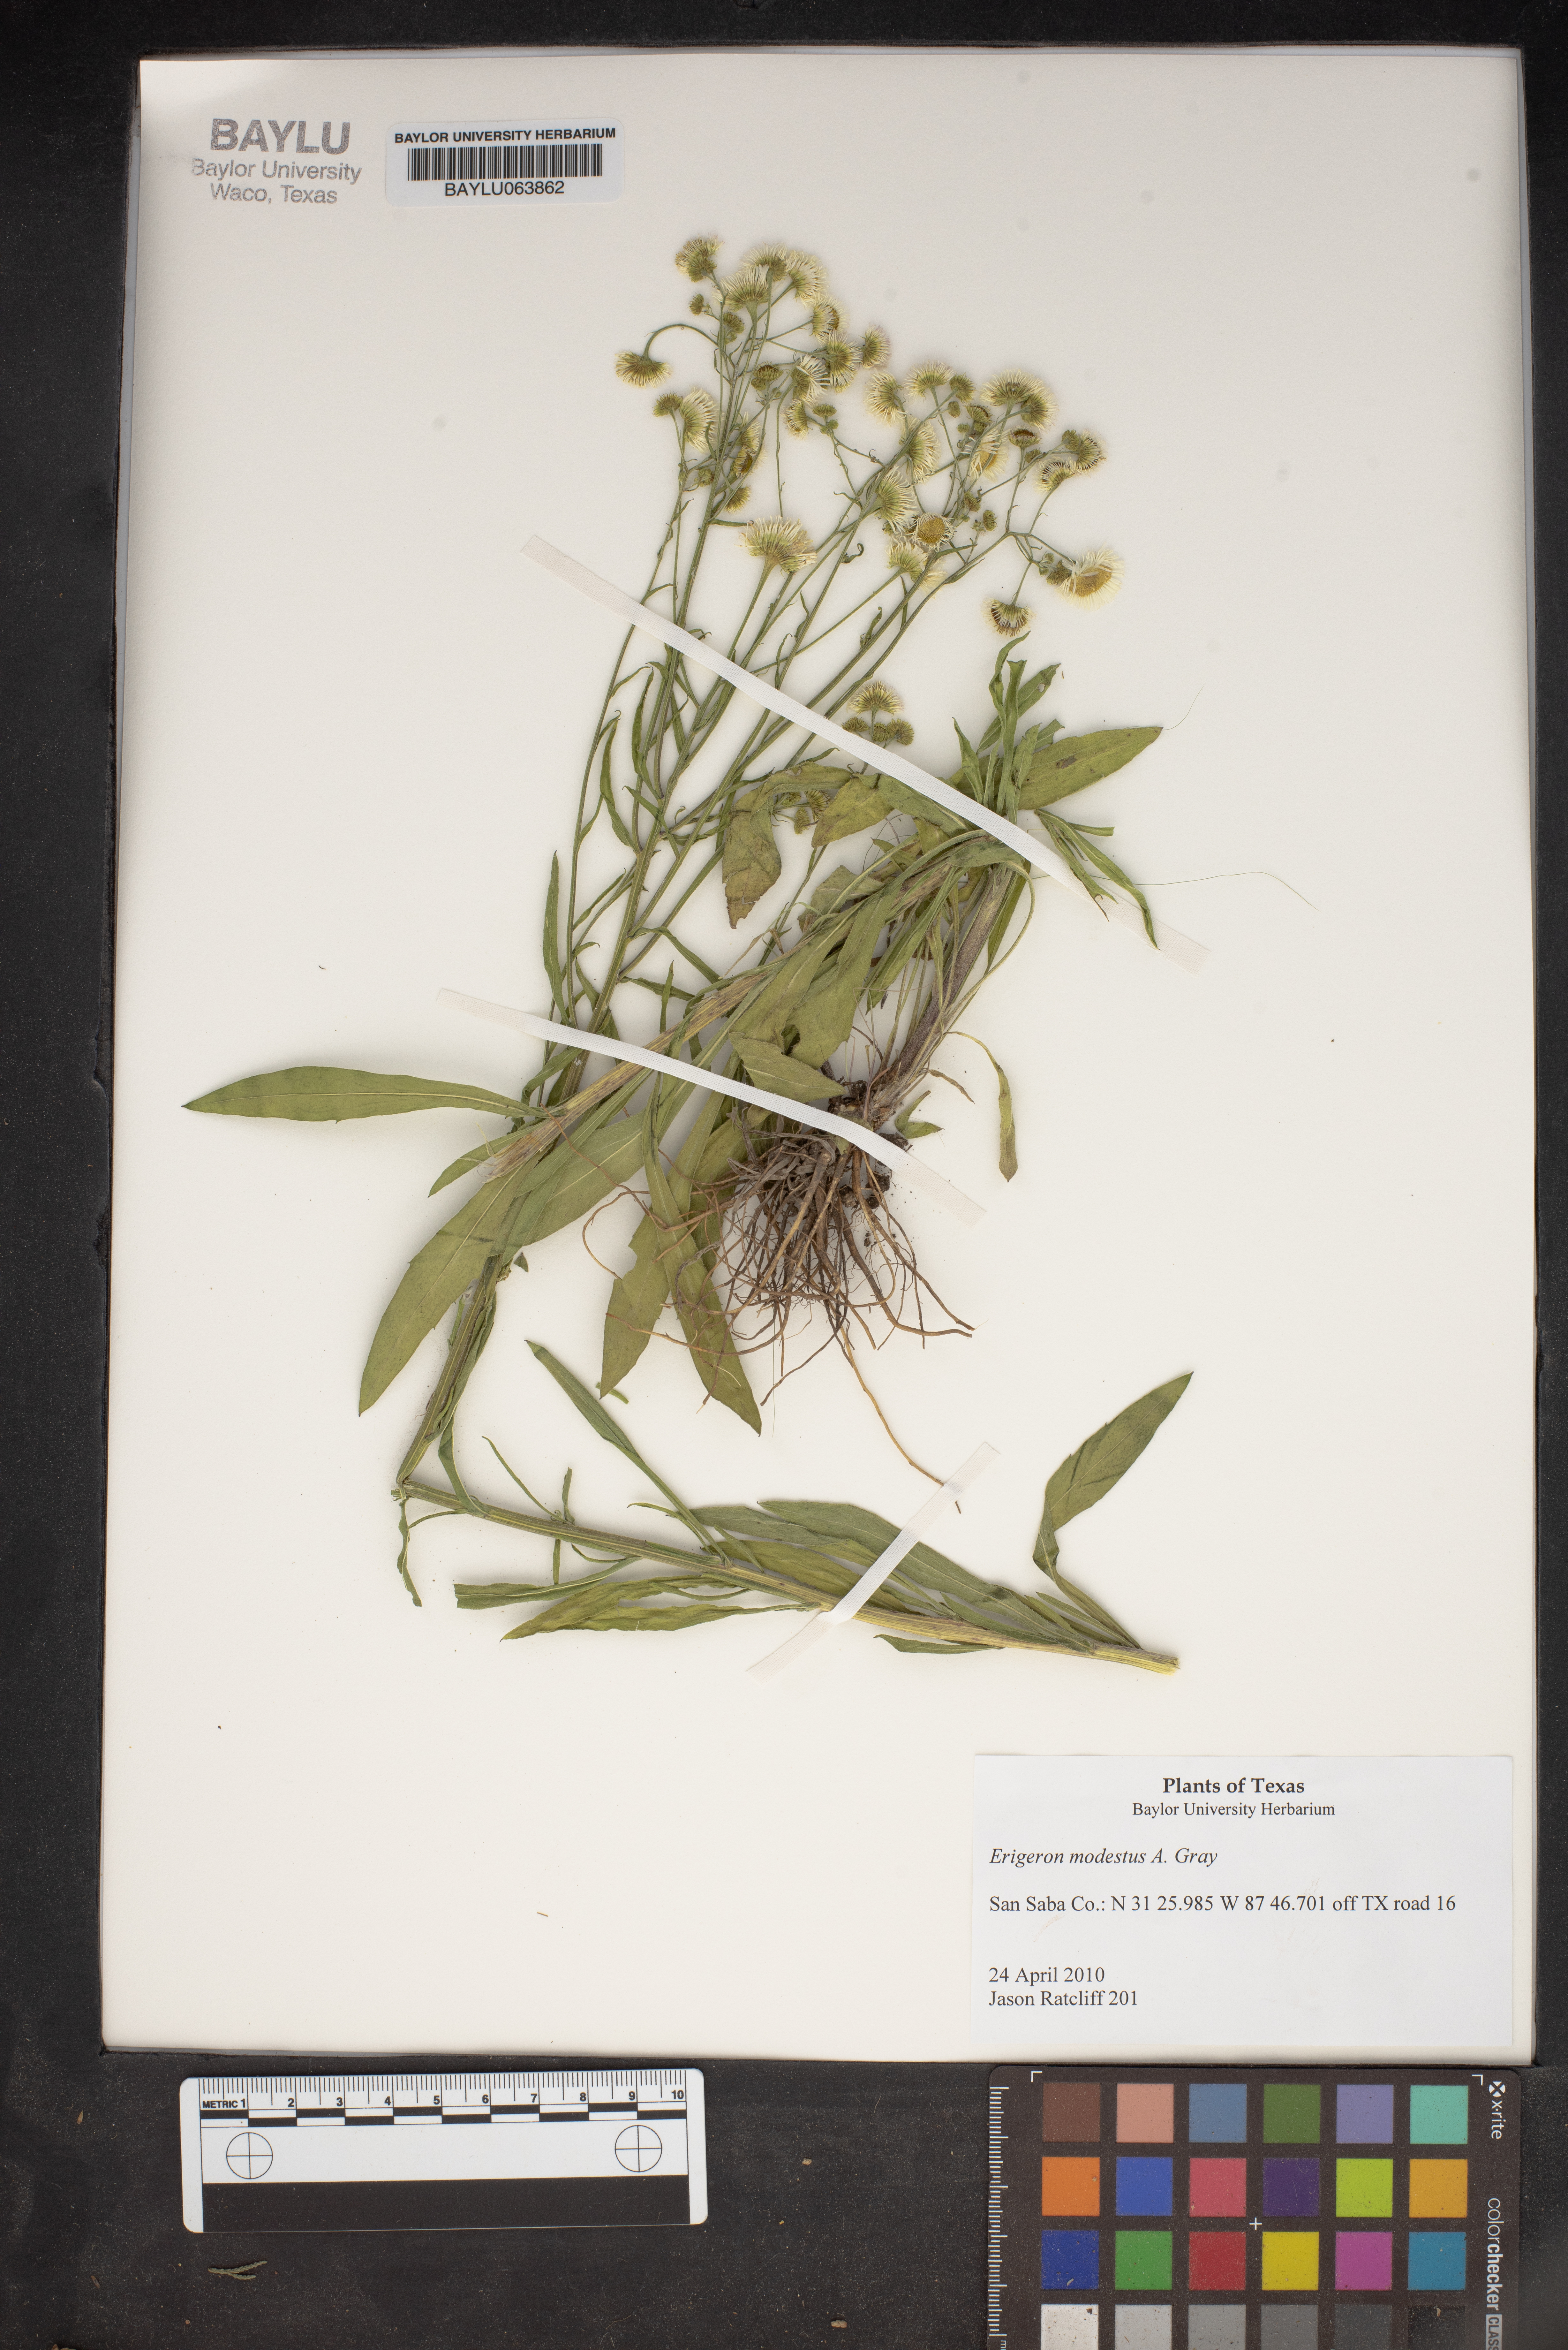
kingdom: Plantae
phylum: Tracheophyta
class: Magnoliopsida
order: Asterales
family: Asteraceae
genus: Erigeron
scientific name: Erigeron modestus
